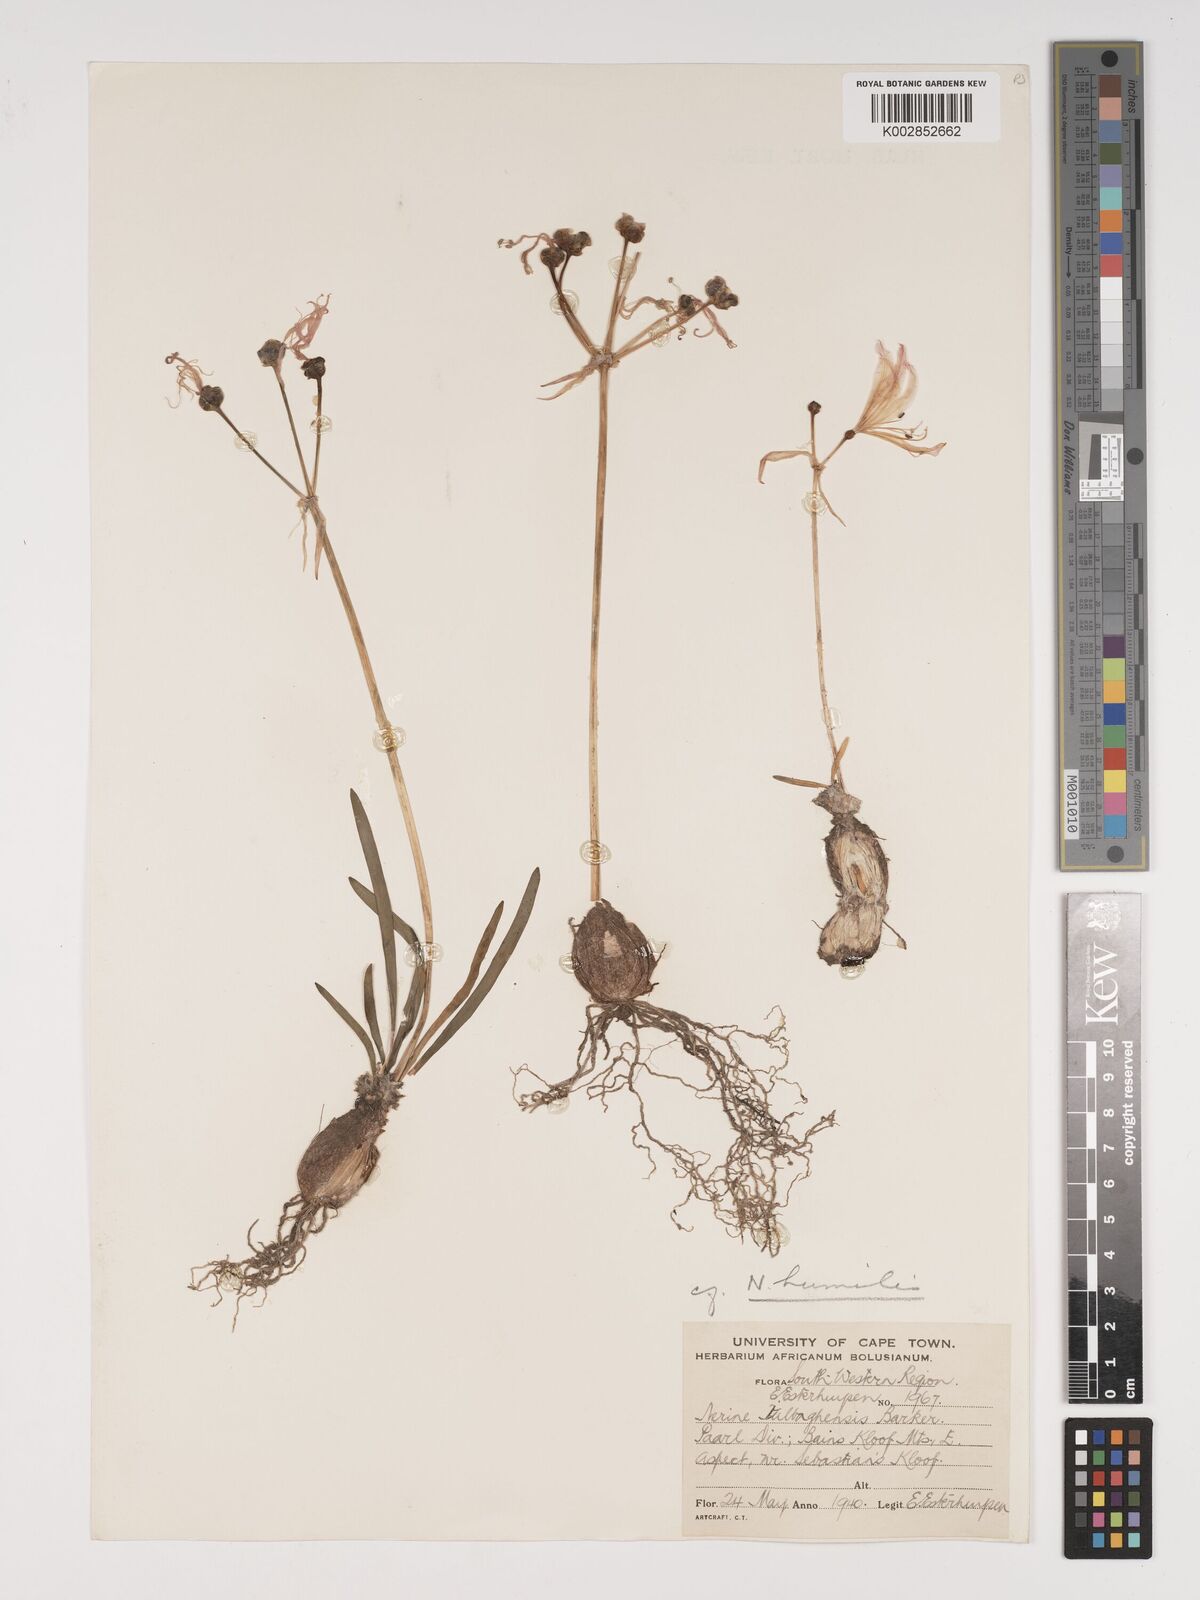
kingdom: Plantae
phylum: Tracheophyta
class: Liliopsida
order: Asparagales
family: Amaryllidaceae
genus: Nerine
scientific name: Nerine humilis
